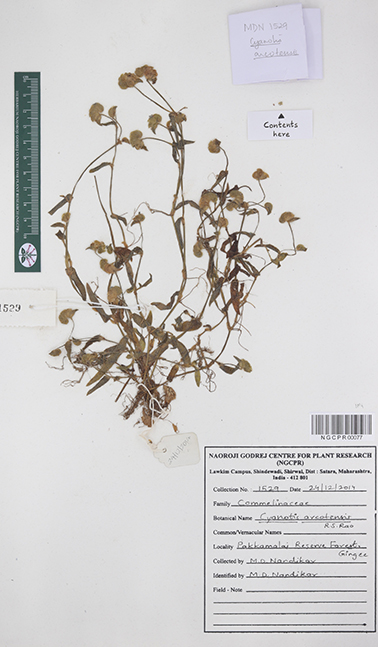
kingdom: Plantae
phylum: Tracheophyta
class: Liliopsida
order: Commelinales
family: Commelinaceae
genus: Cyanotis
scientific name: Cyanotis arcotensis
